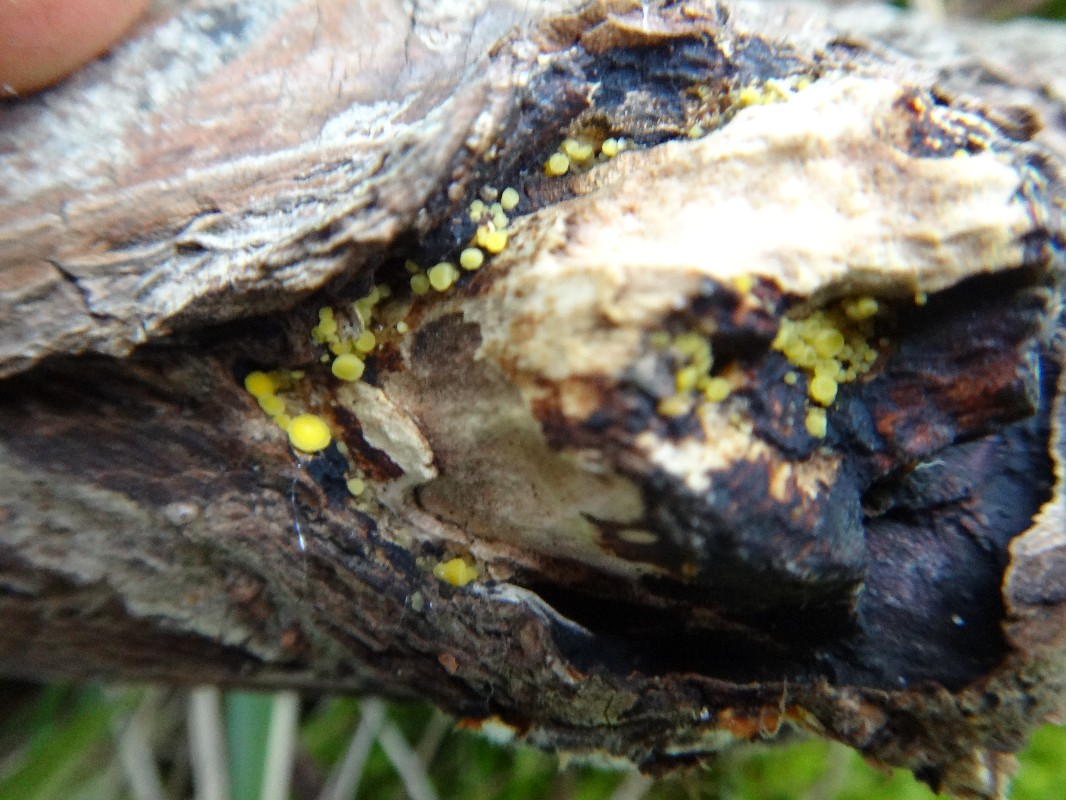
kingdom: Fungi
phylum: Ascomycota
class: Leotiomycetes
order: Helotiales
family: Pezizellaceae
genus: Calycina
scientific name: Calycina citrina
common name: almindelig gulskive
